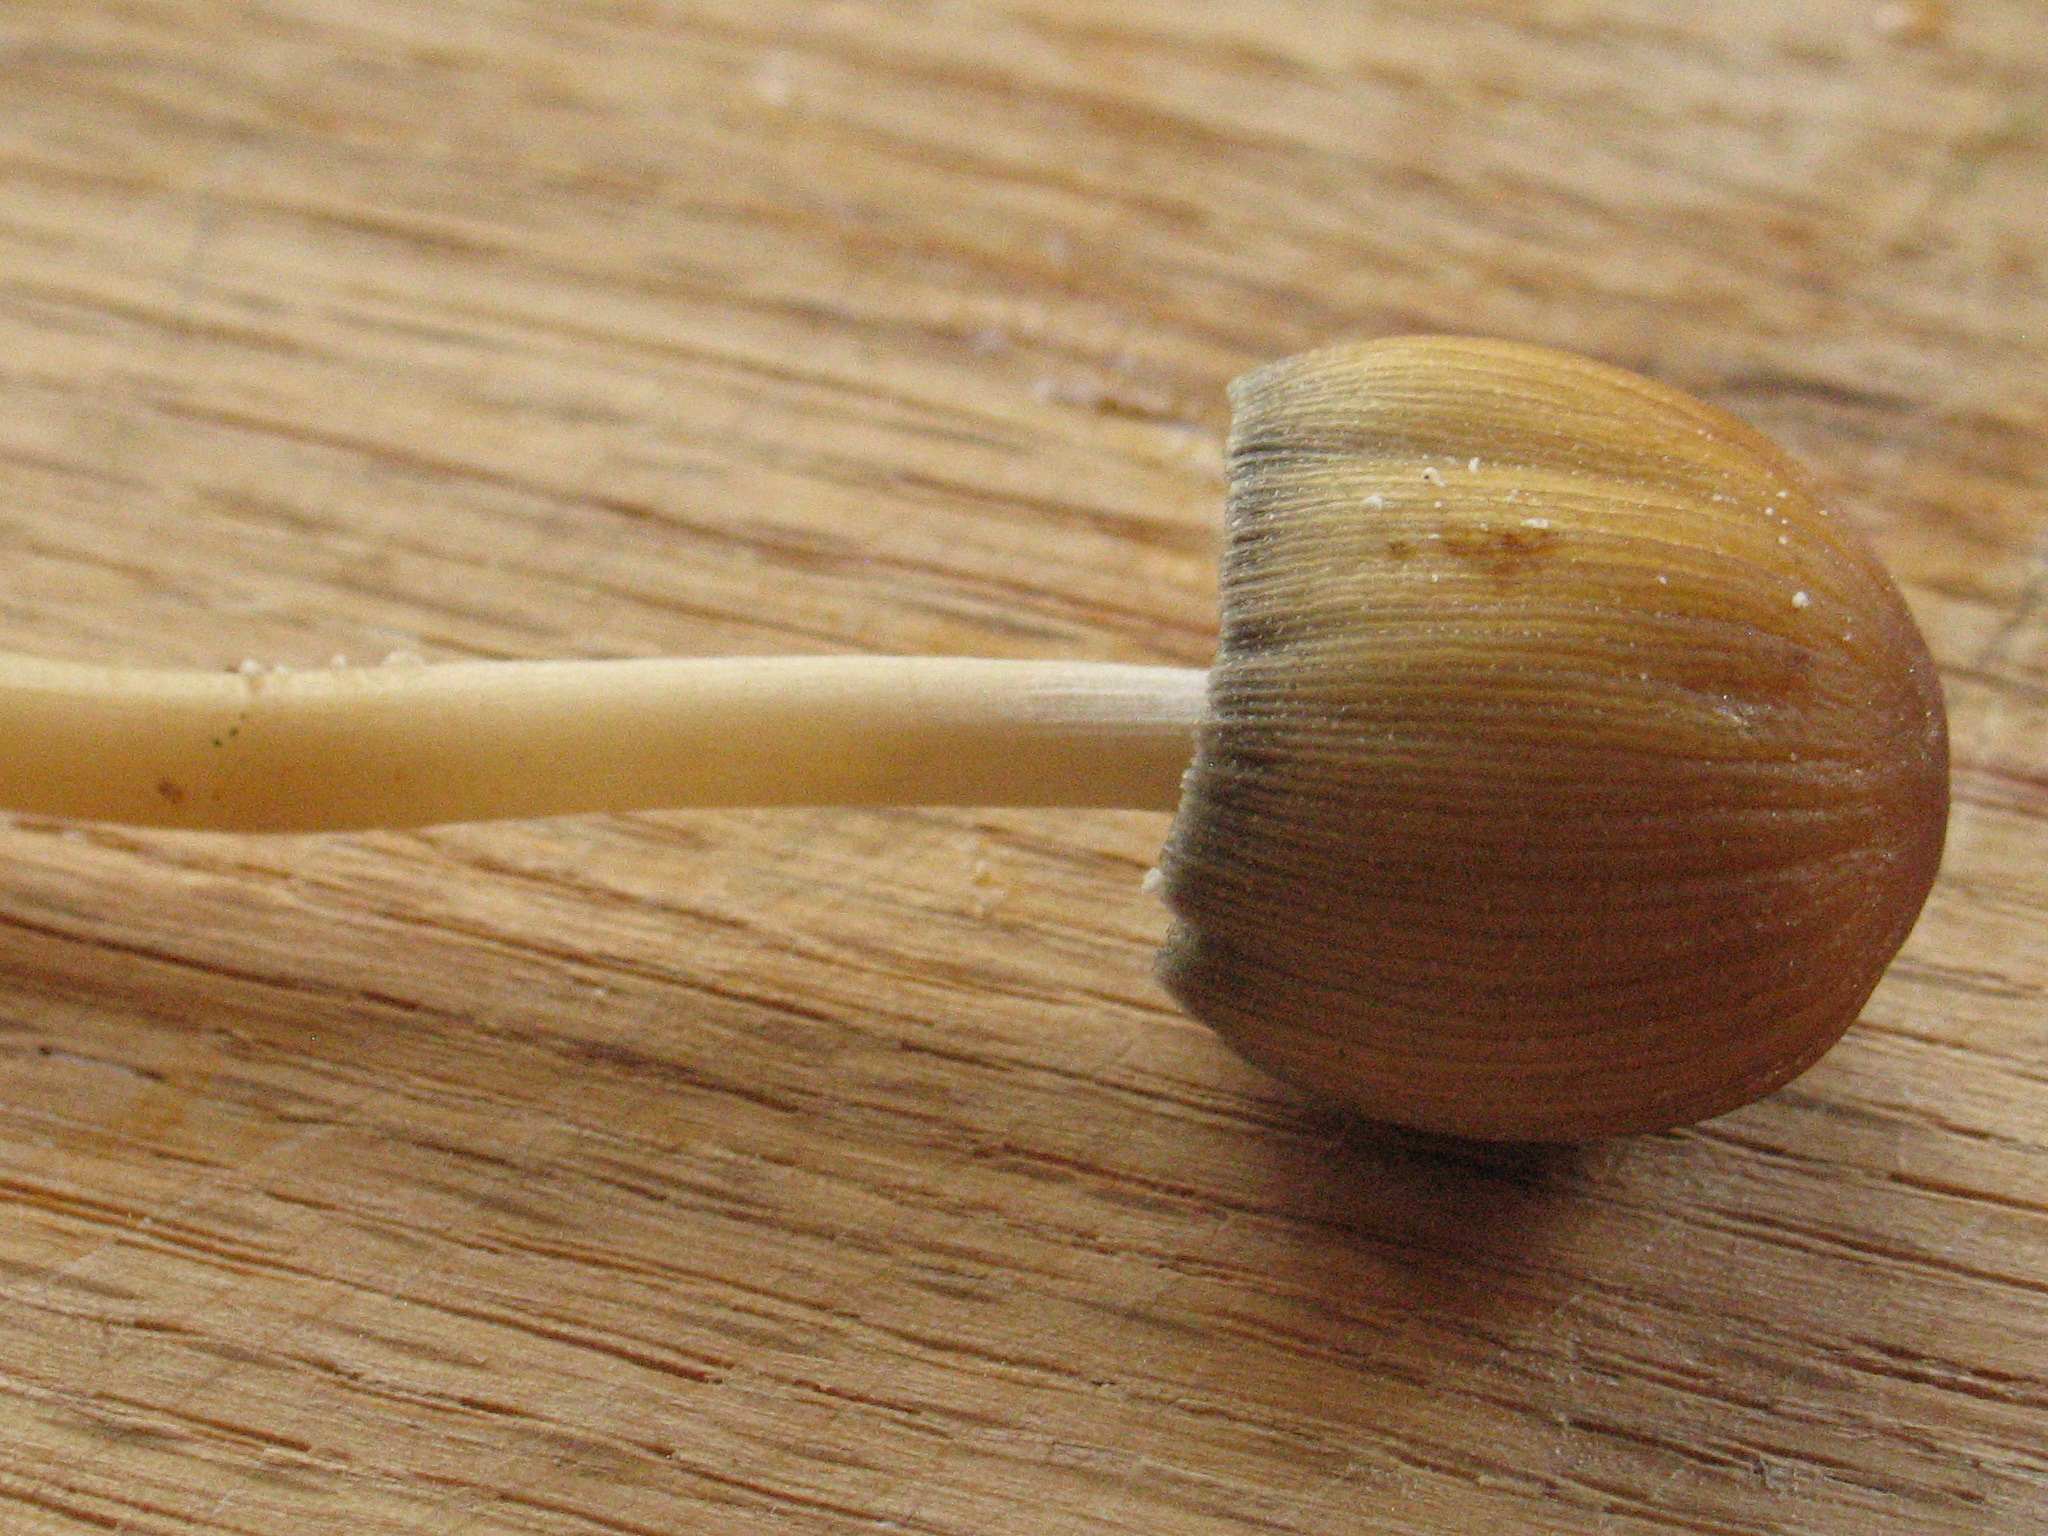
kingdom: Fungi
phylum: Basidiomycota
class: Agaricomycetes
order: Agaricales
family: Psathyrellaceae
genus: Coprinellus
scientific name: Coprinellus micaceus
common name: glimmer-blækhat
